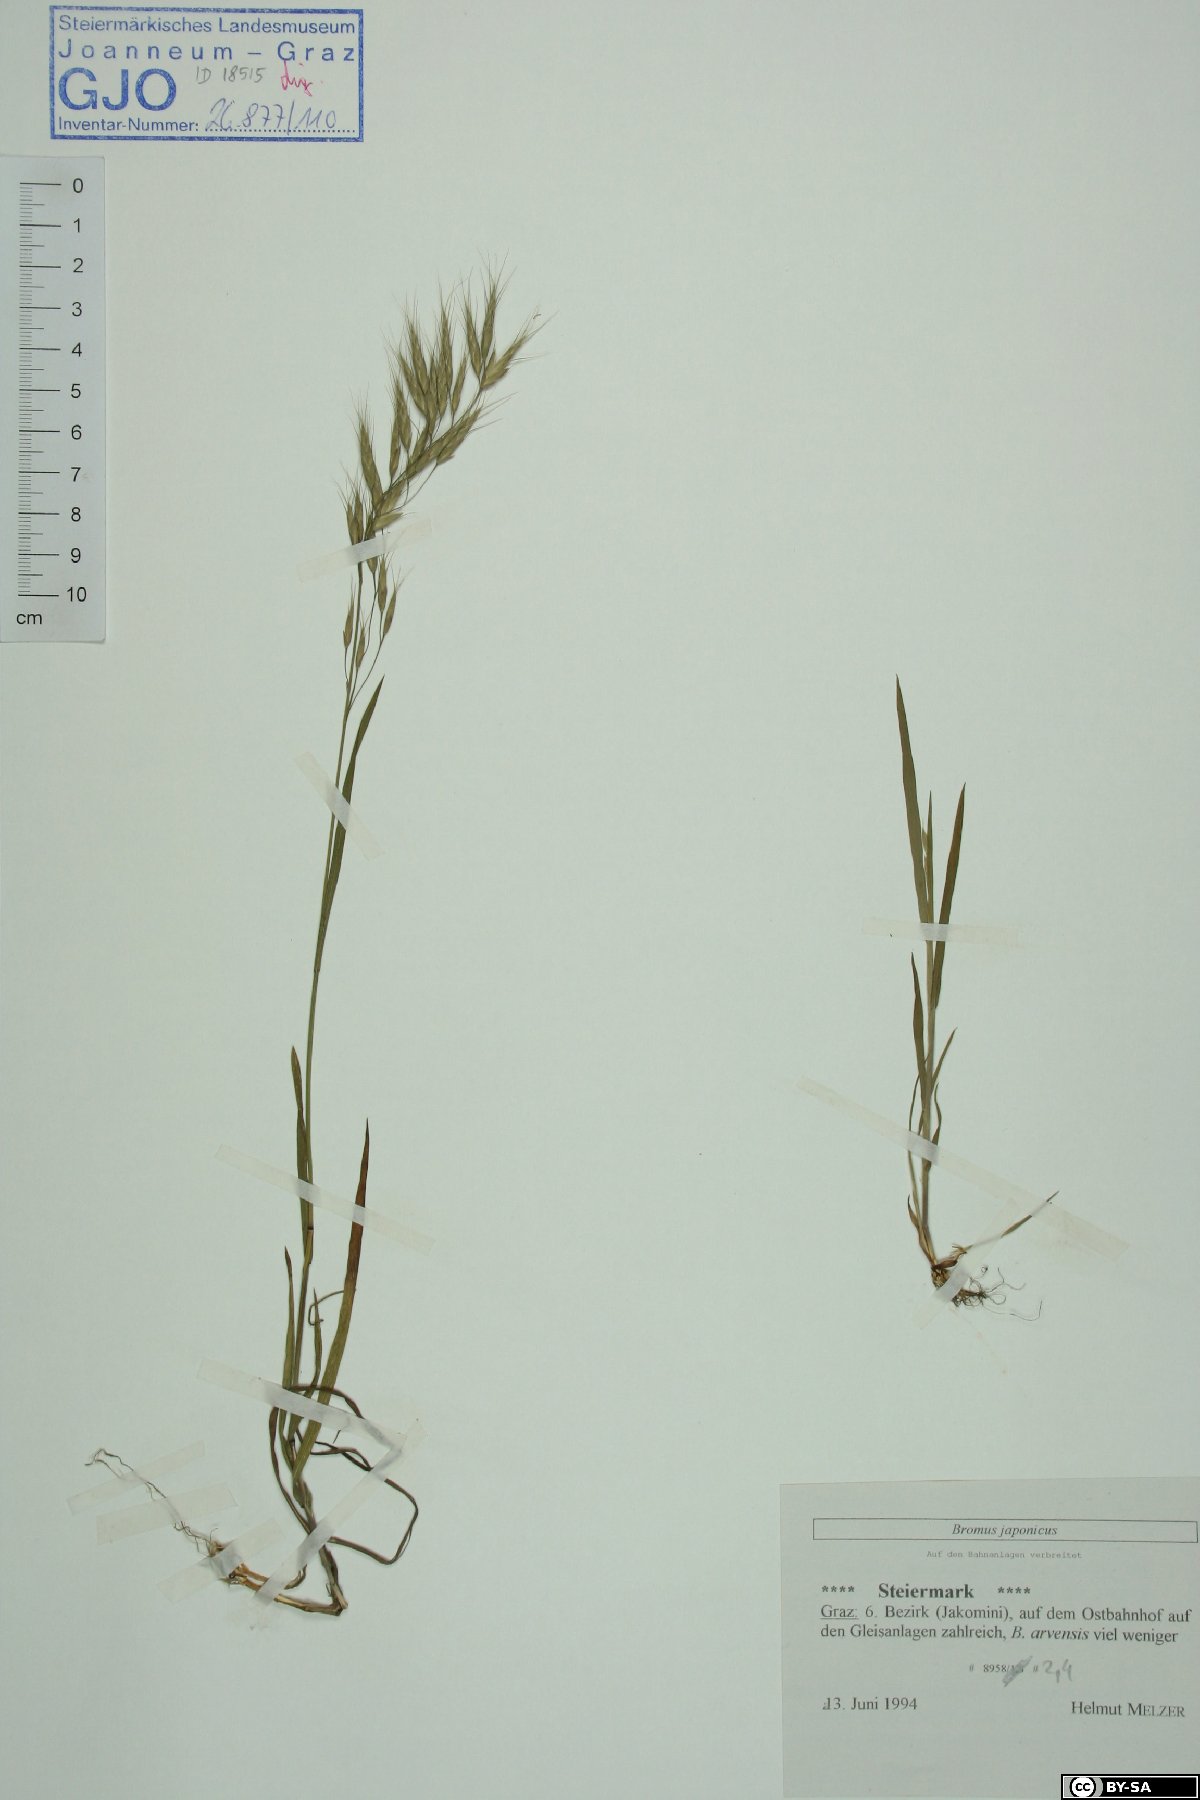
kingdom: Plantae
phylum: Tracheophyta
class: Liliopsida
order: Poales
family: Poaceae
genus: Bromus
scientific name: Bromus japonicus
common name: Japanese brome
